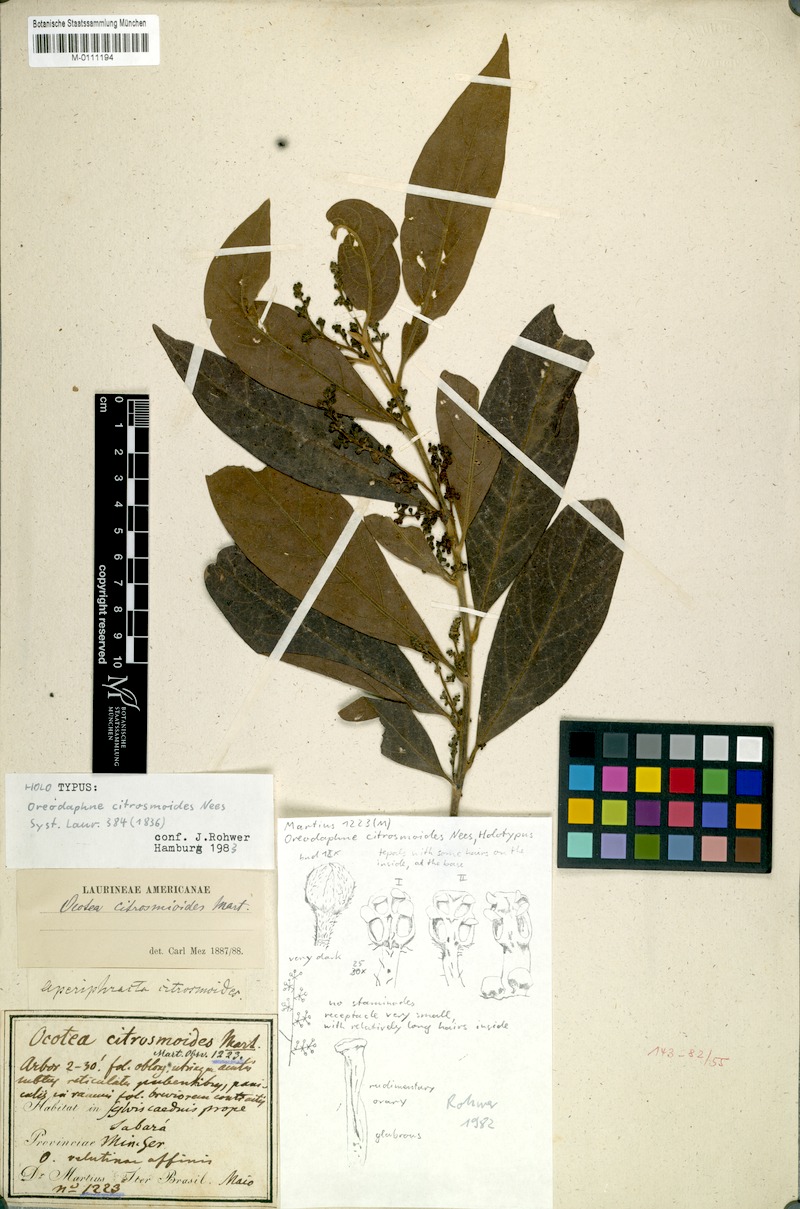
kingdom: Plantae
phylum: Tracheophyta
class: Magnoliopsida
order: Laurales
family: Lauraceae
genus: Ocotea
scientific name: Ocotea citrosmoides
